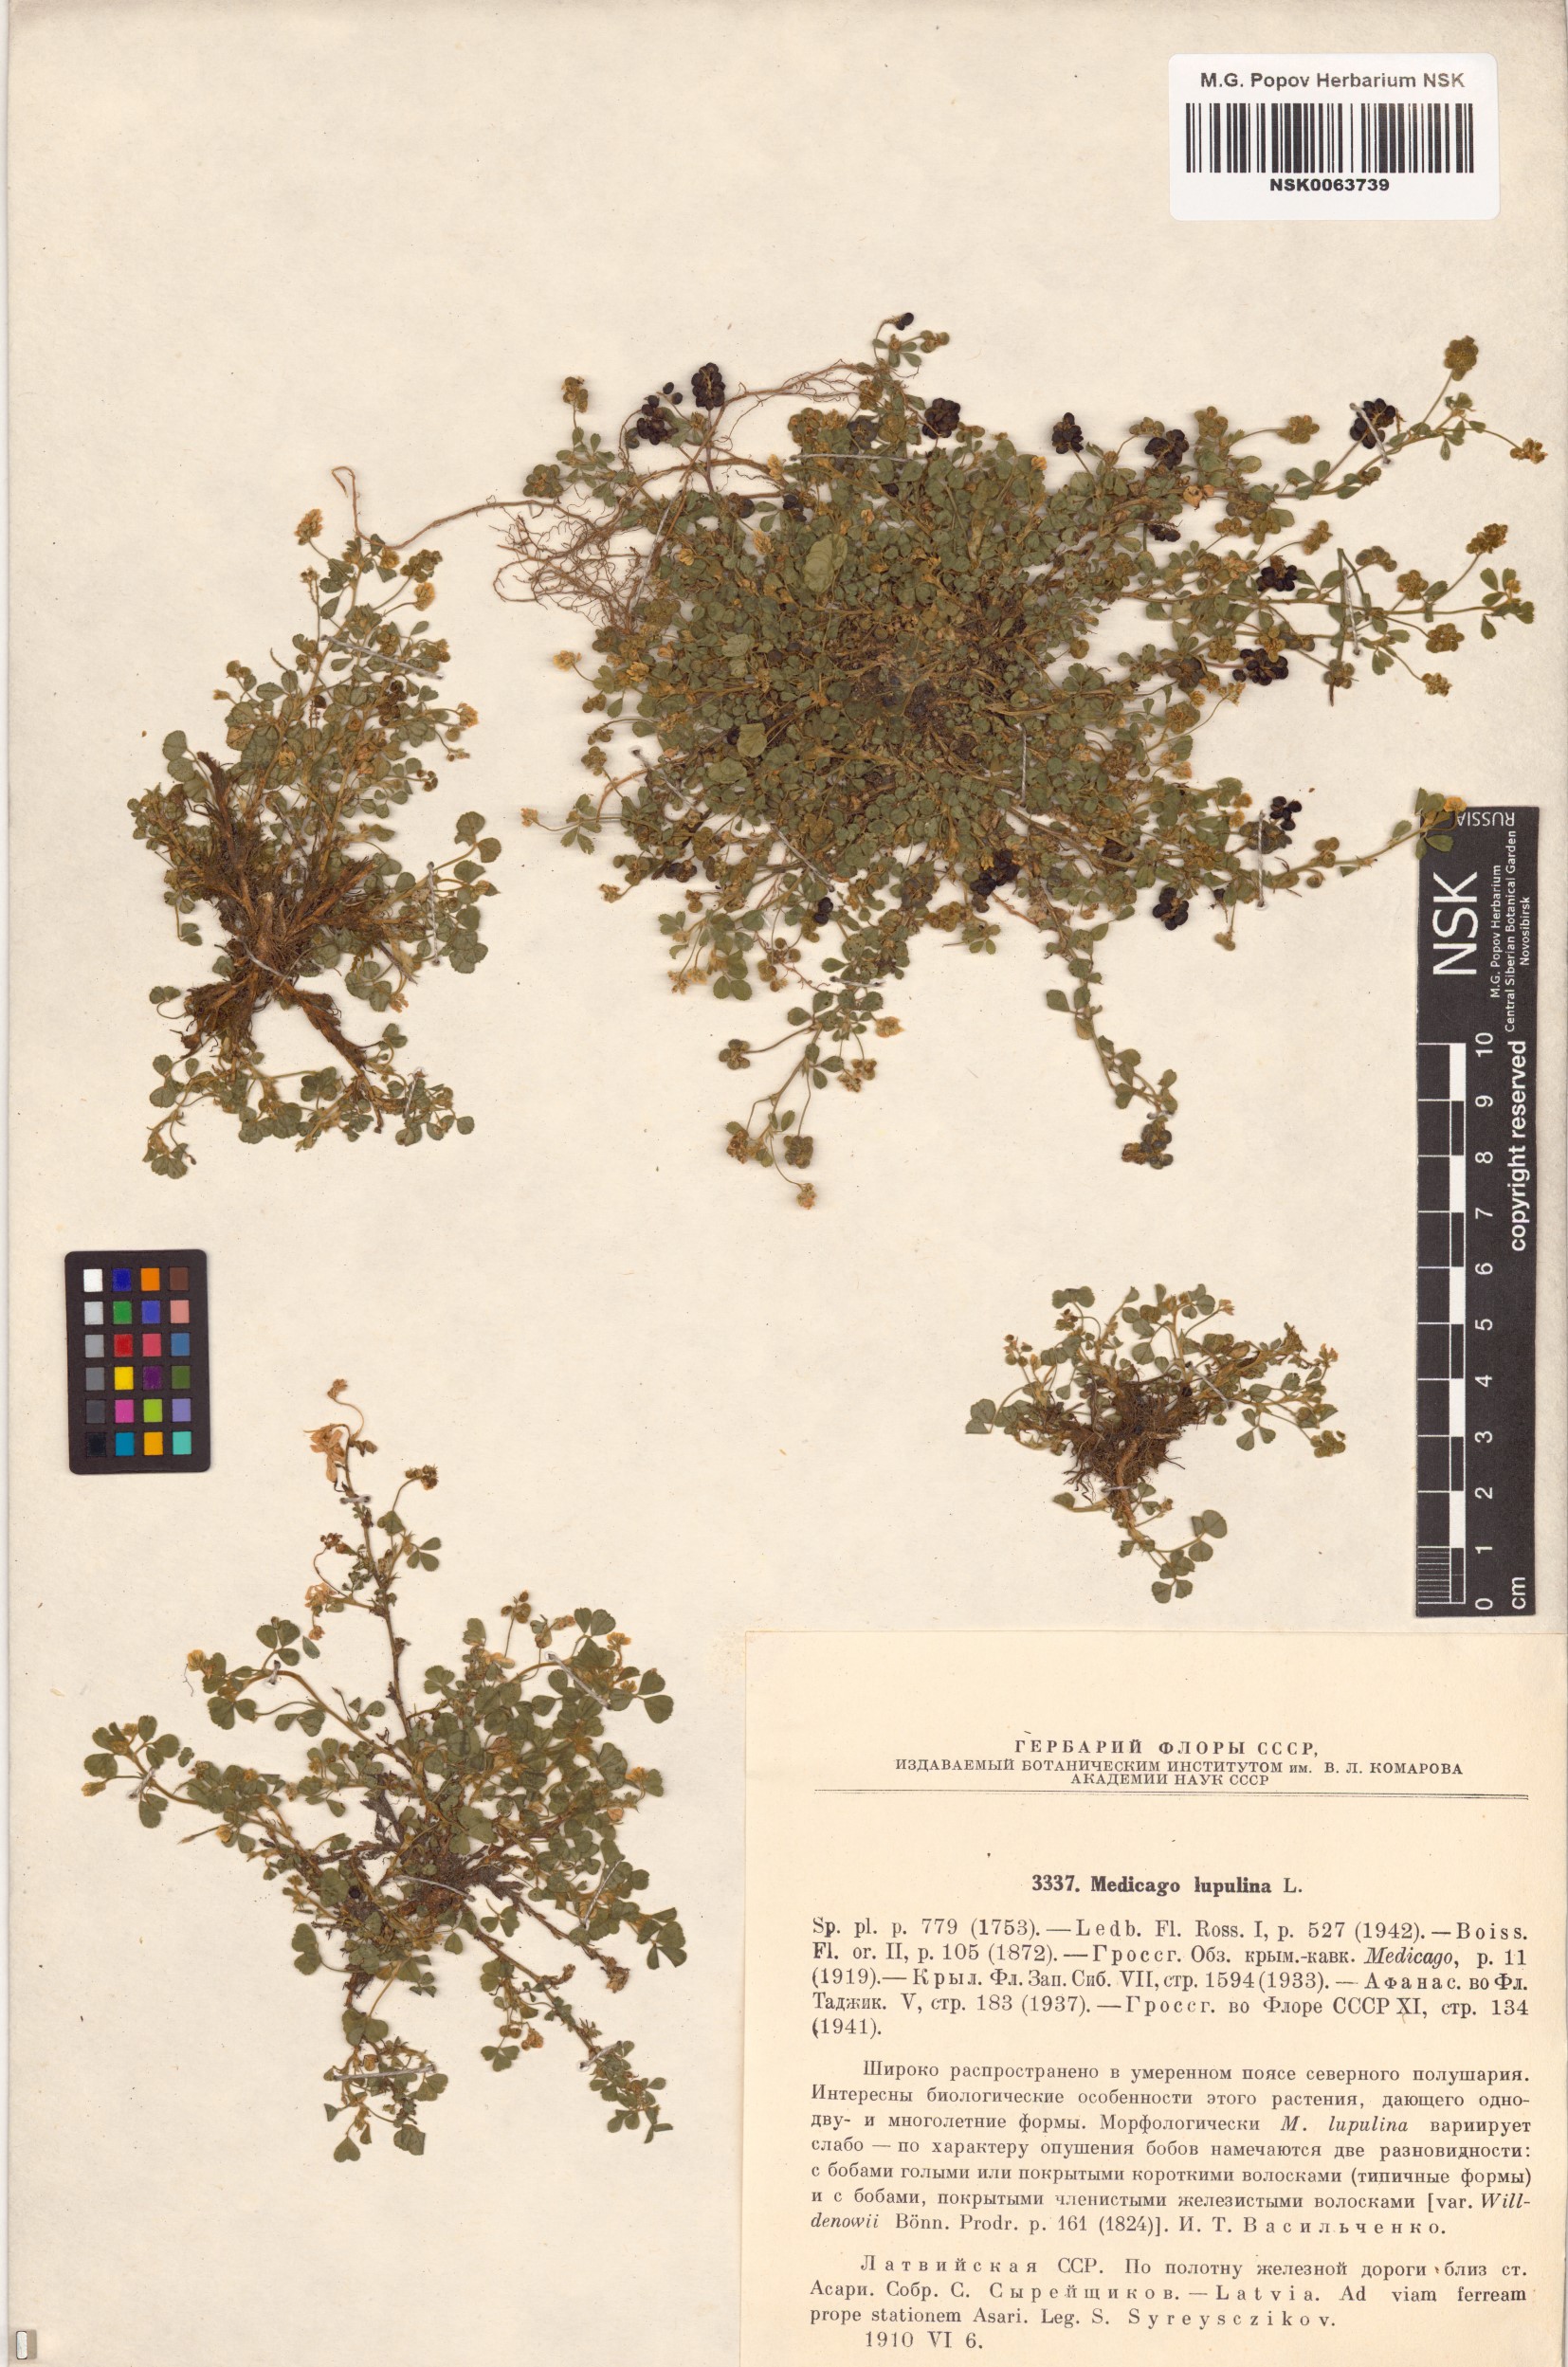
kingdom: Plantae
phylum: Tracheophyta
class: Magnoliopsida
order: Fabales
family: Fabaceae
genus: Medicago
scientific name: Medicago lupulina
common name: Black medick
